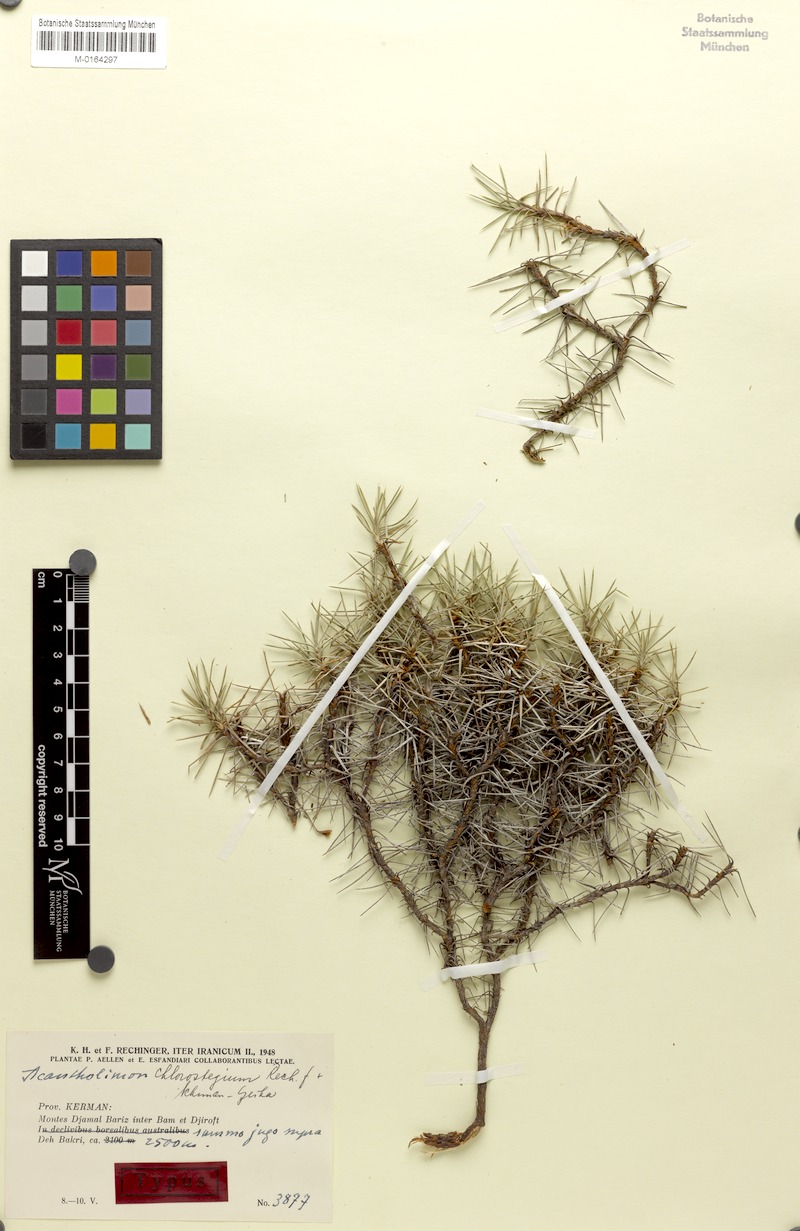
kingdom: Plantae
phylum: Tracheophyta
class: Magnoliopsida
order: Caryophyllales
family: Plumbaginaceae
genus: Acantholimon
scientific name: Acantholimon chlorostegium
